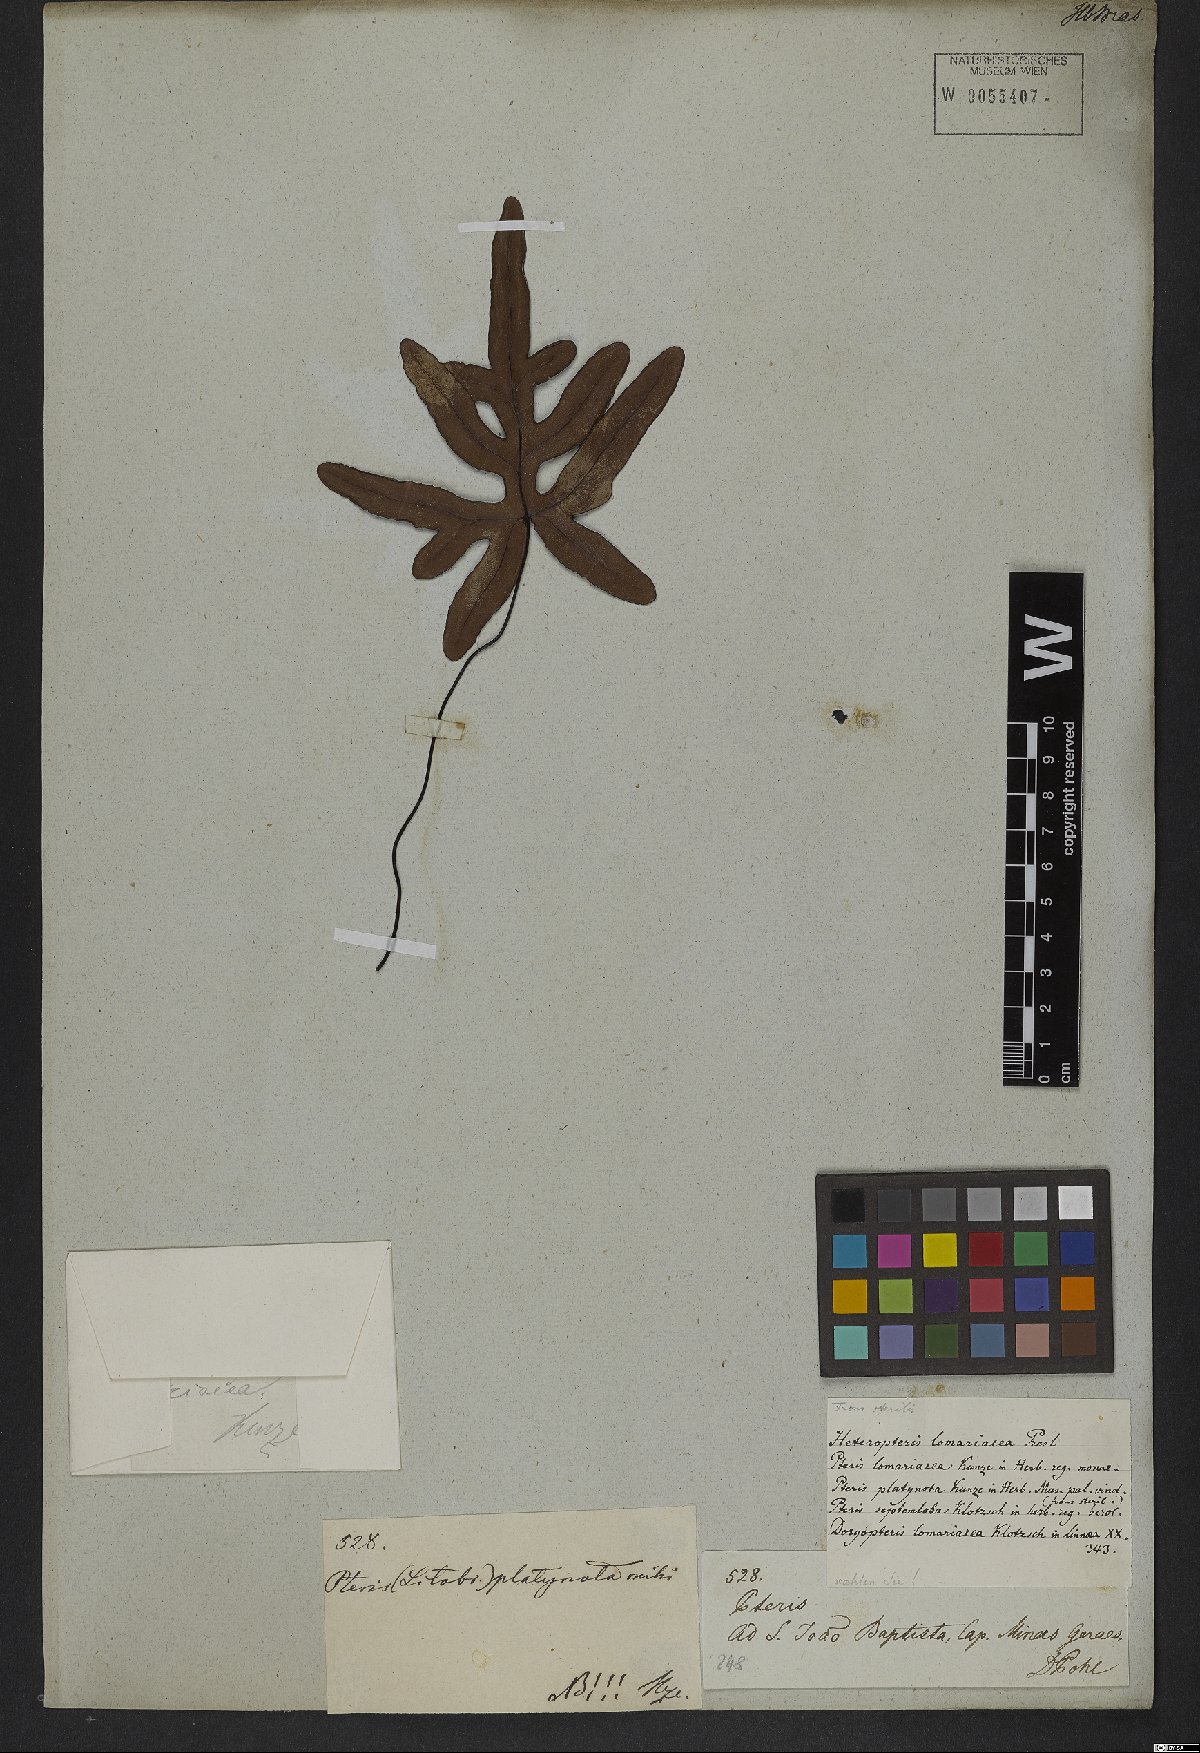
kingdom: Plantae
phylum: Tracheophyta
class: Polypodiopsida
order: Polypodiales
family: Pteridaceae
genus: Lytoneuron
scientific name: Lytoneuron lomariaceum
